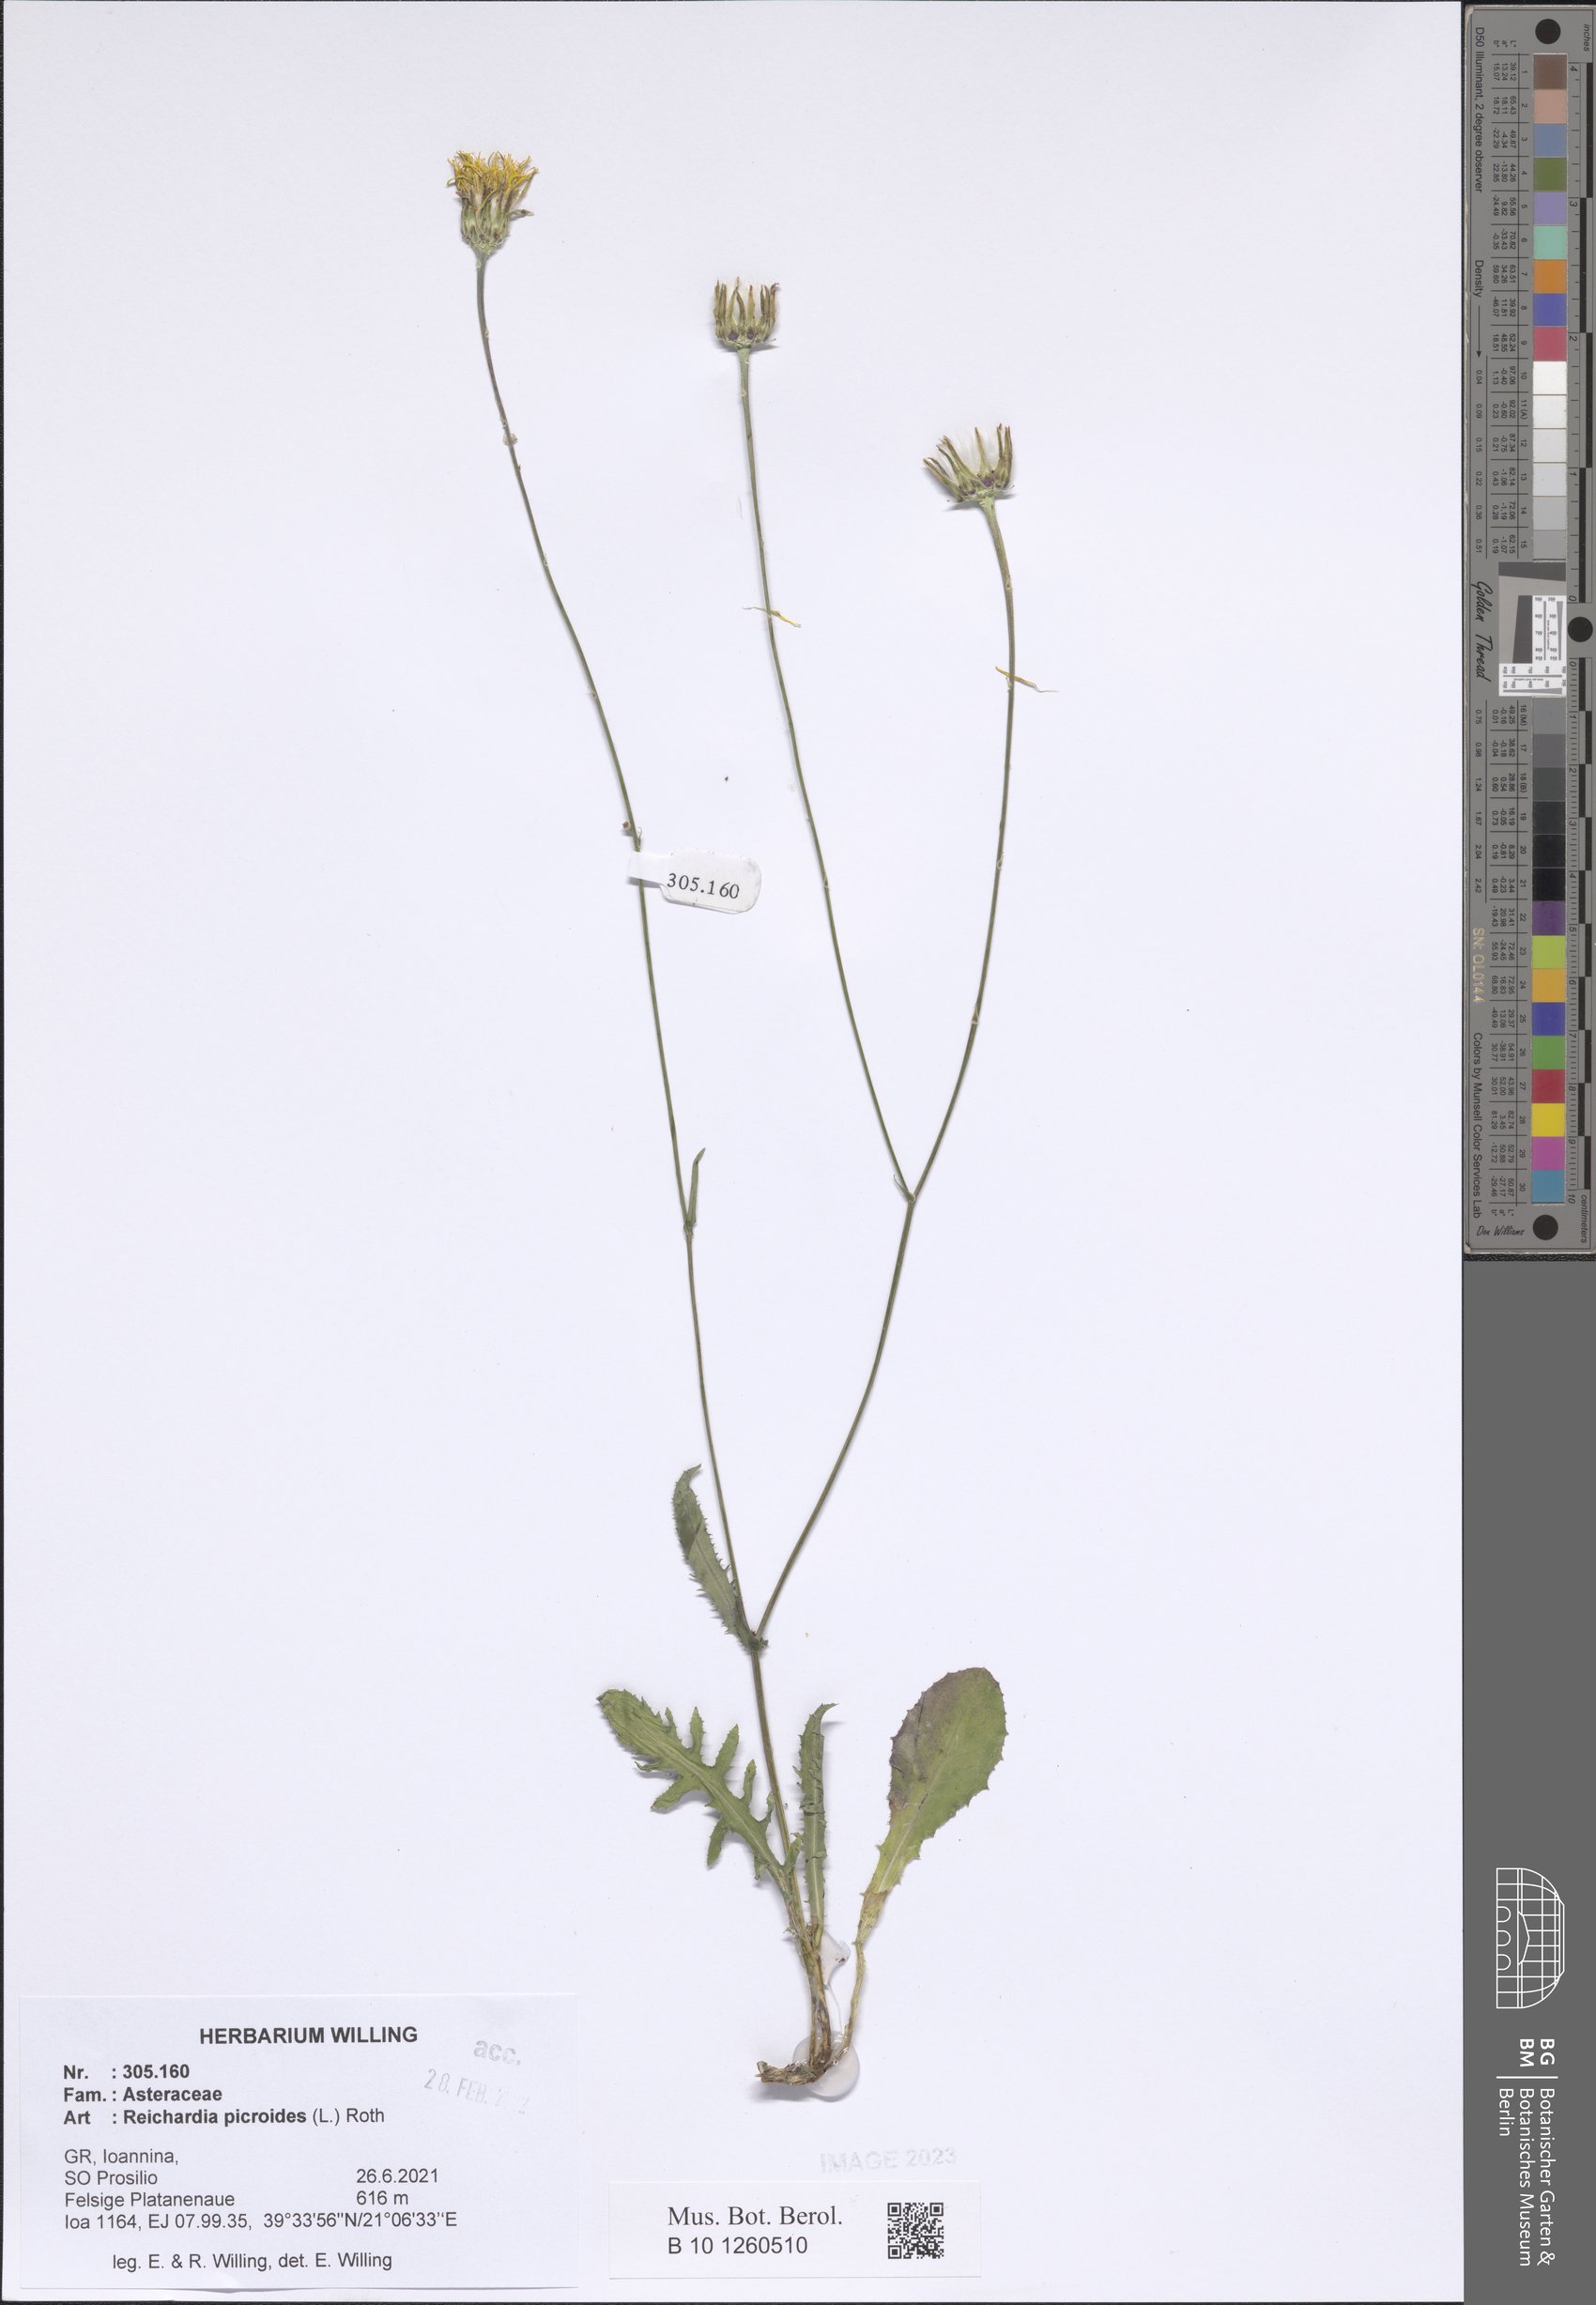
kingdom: Plantae
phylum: Tracheophyta
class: Magnoliopsida
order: Asterales
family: Asteraceae
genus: Reichardia
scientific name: Reichardia picroides
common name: Common brighteyes
